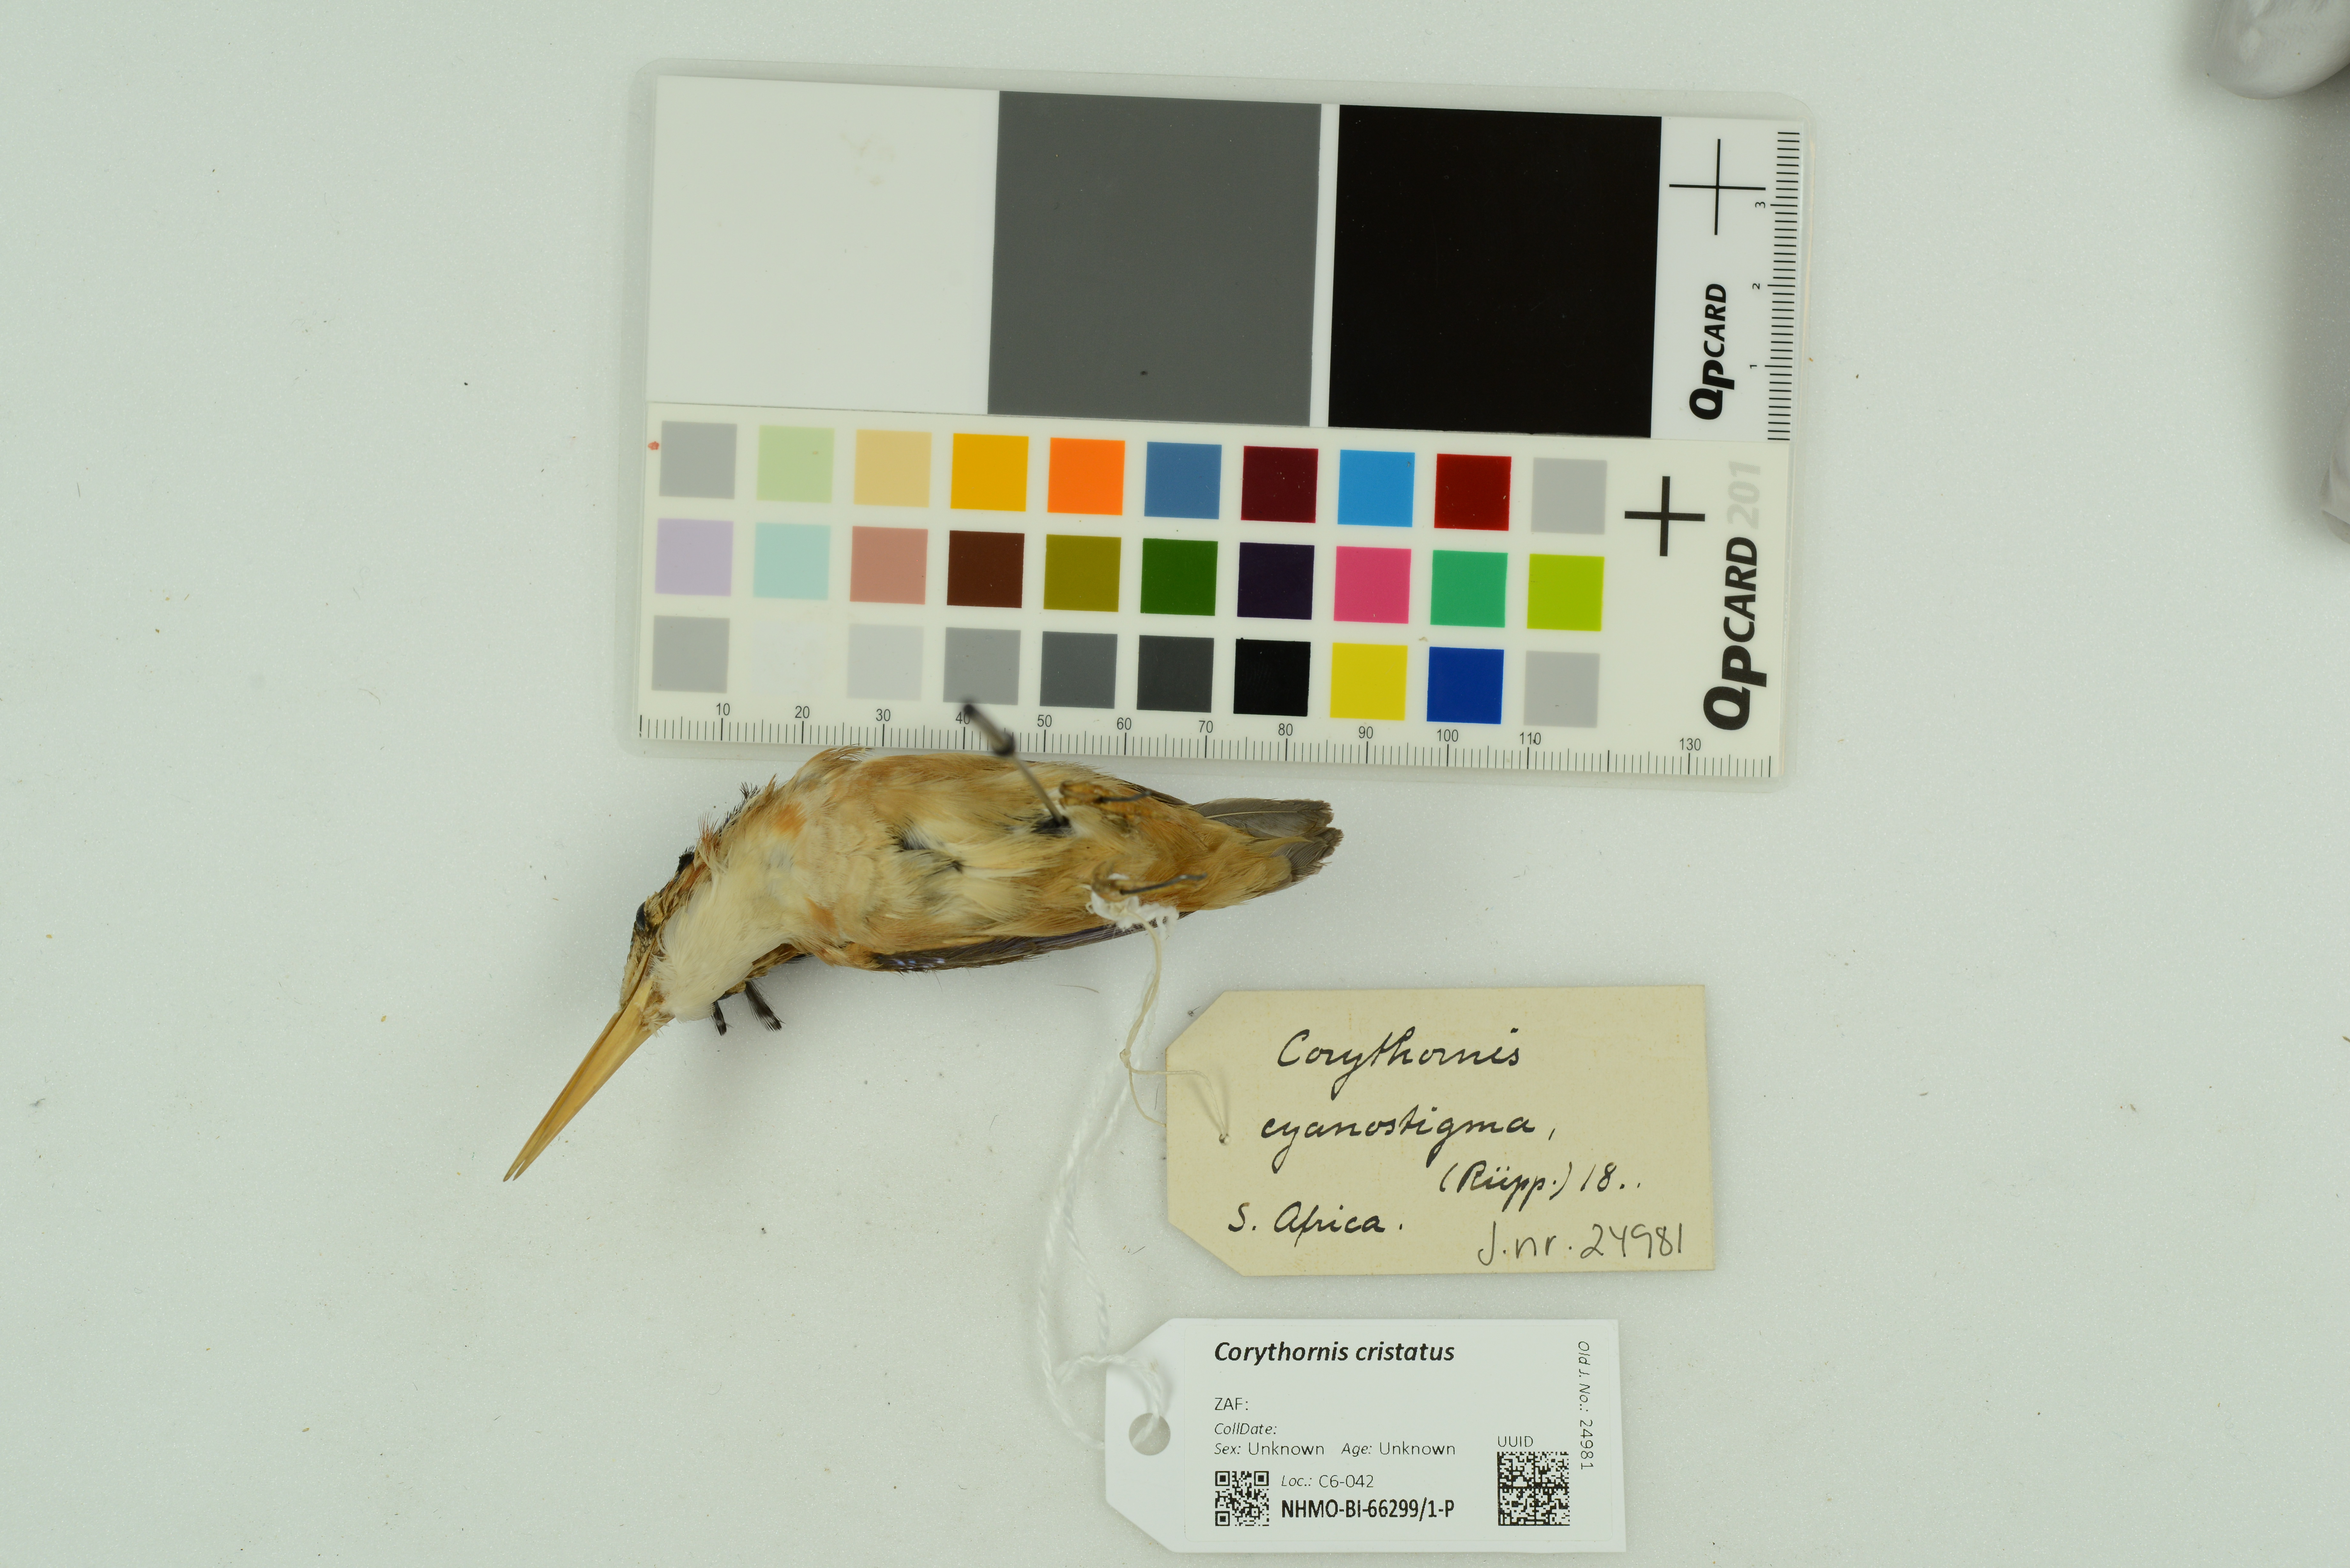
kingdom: Animalia
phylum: Chordata
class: Aves
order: Coraciiformes
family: Alcedinidae
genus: Corythornis
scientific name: Corythornis cristatus
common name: Malachite kingfisher
